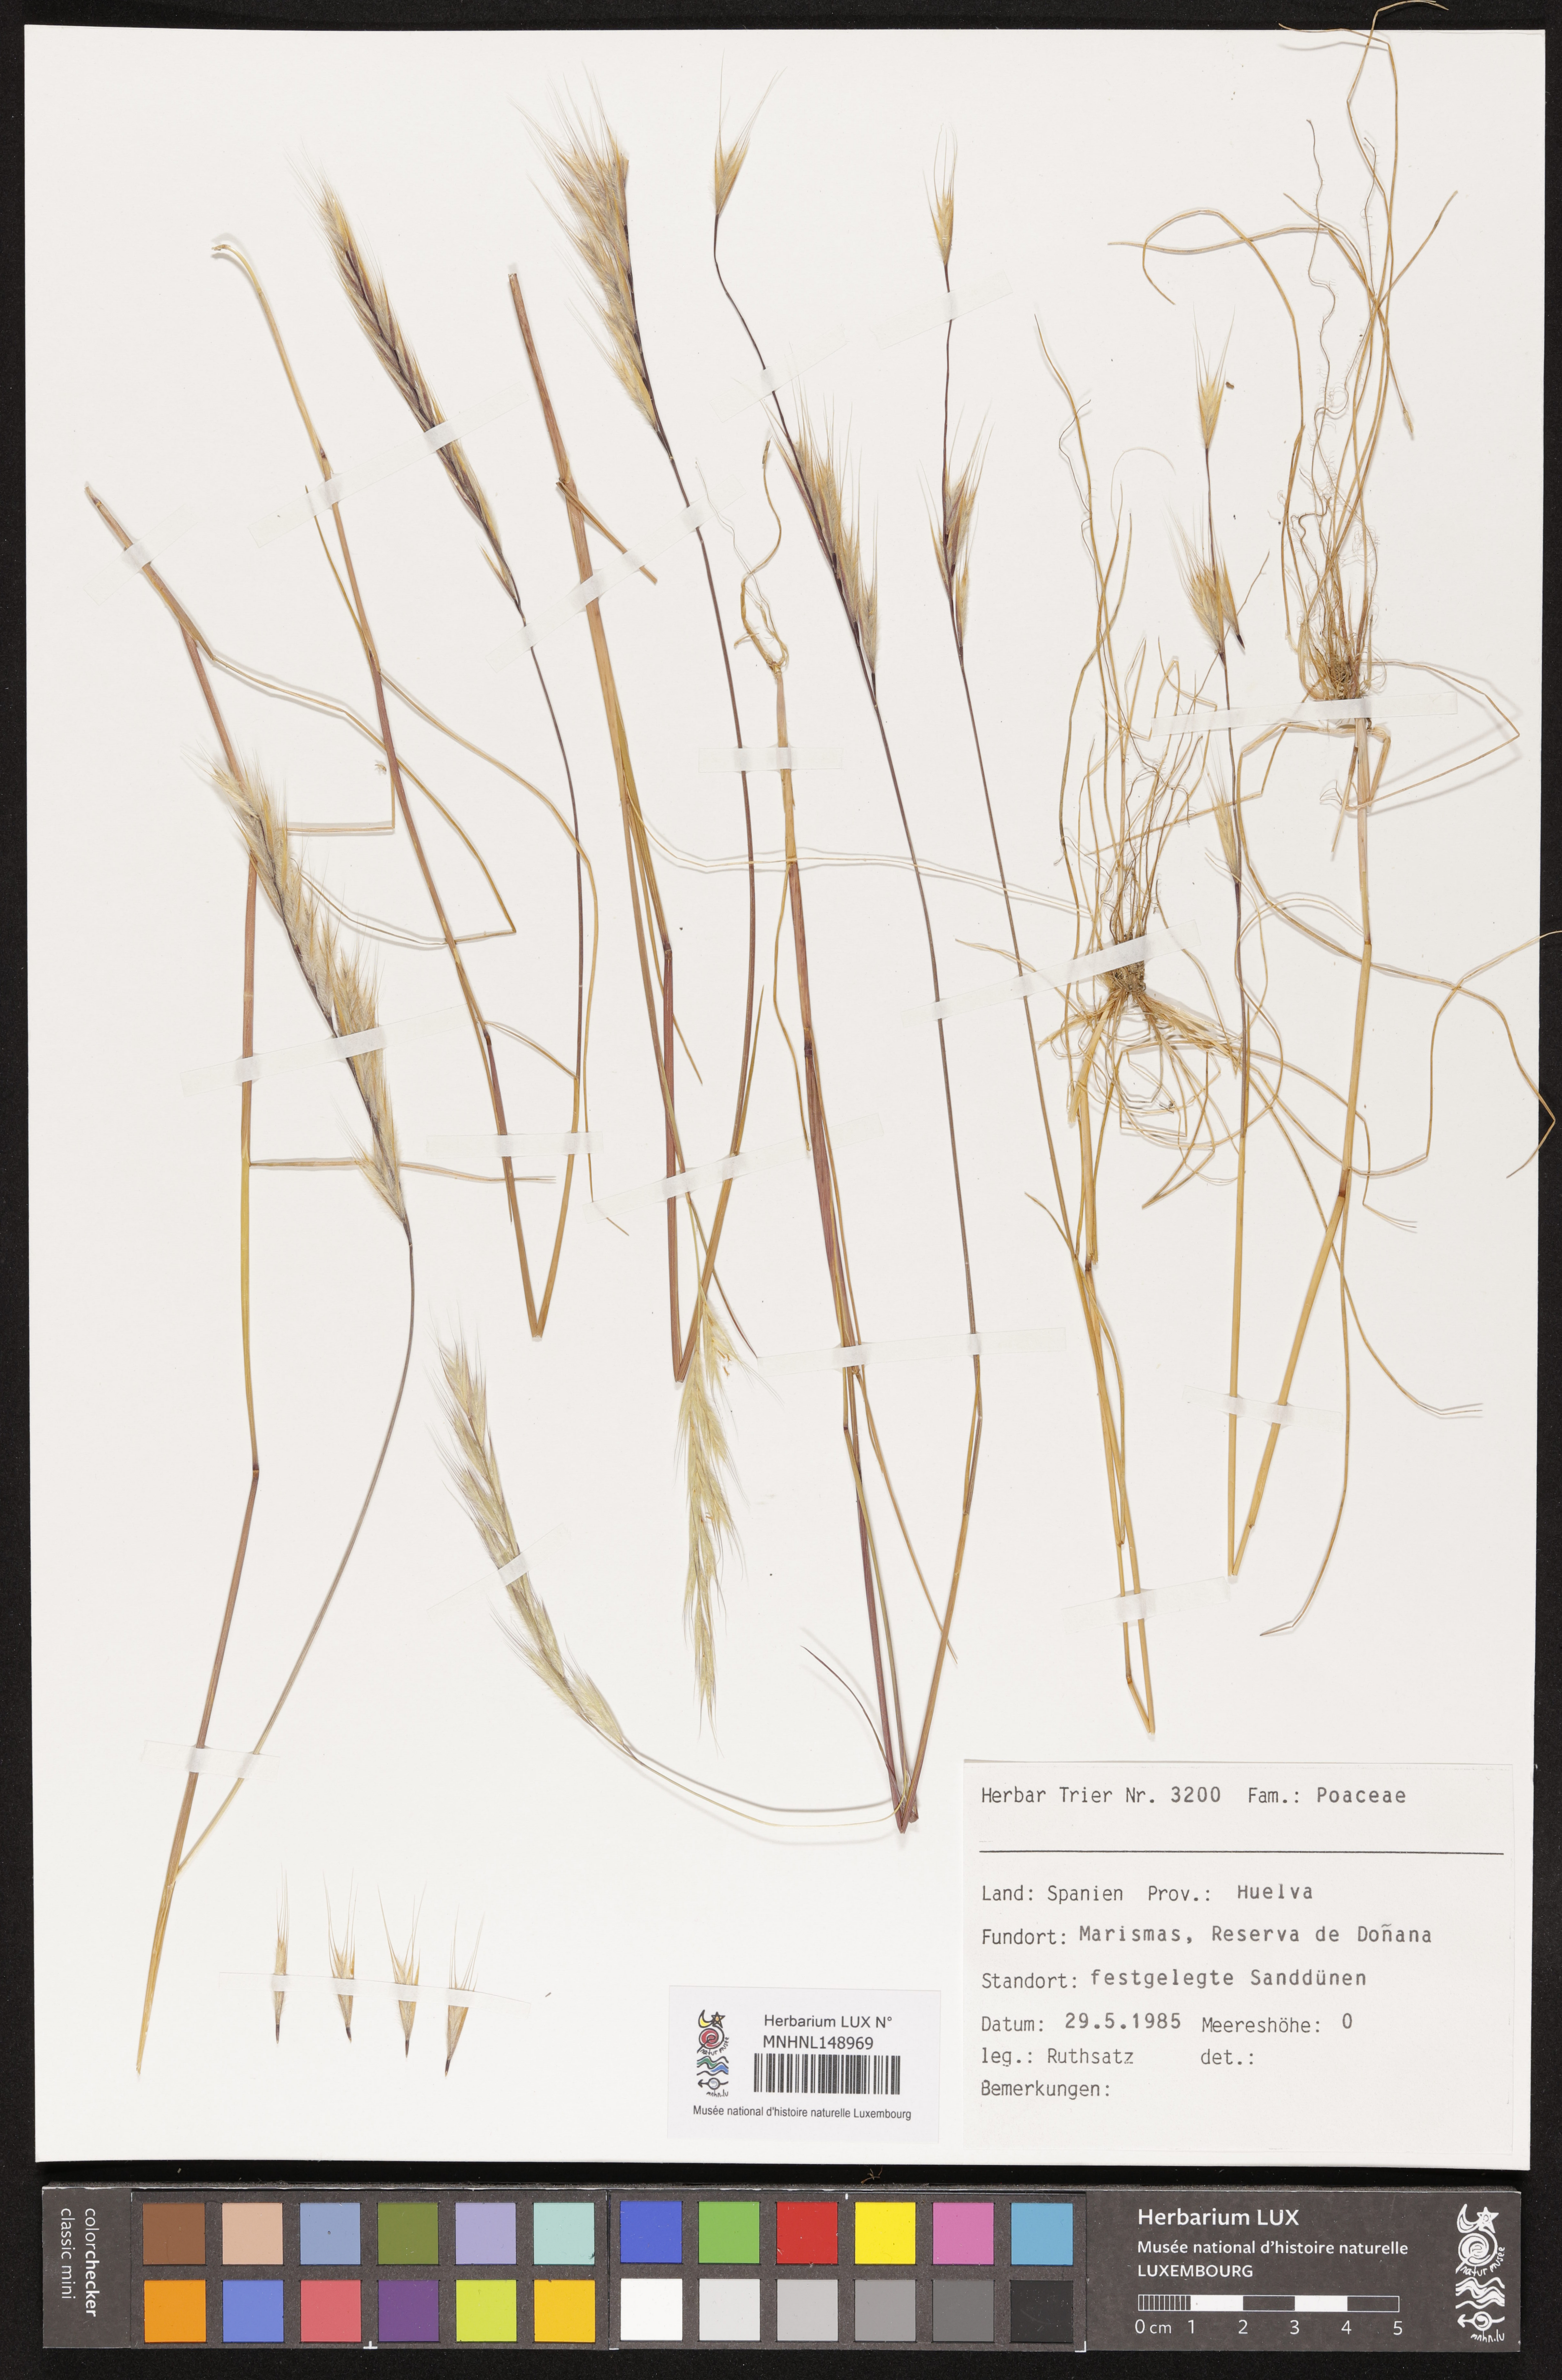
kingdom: Plantae
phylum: Tracheophyta
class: Liliopsida
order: Poales
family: Poaceae
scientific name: Poaceae
